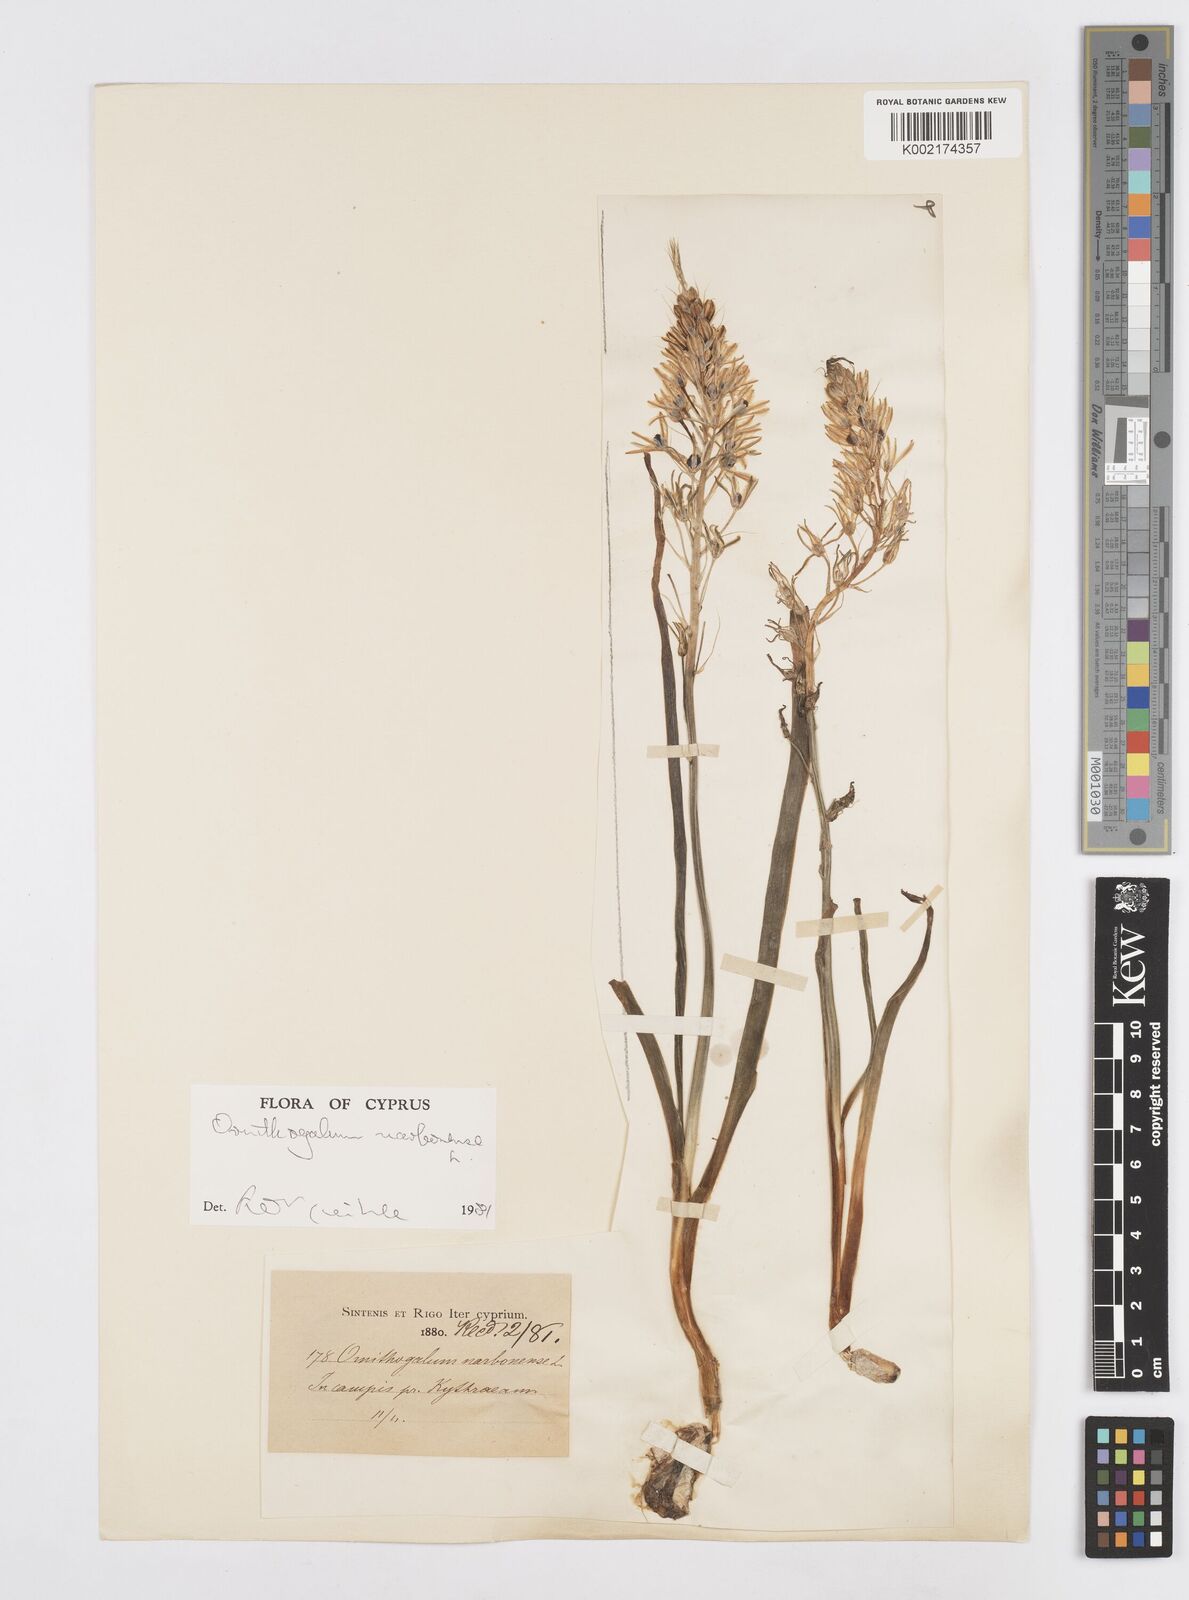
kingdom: Plantae
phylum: Tracheophyta
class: Liliopsida
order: Asparagales
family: Asparagaceae
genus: Ornithogalum
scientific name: Ornithogalum narbonense
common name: Bath-asparagus
